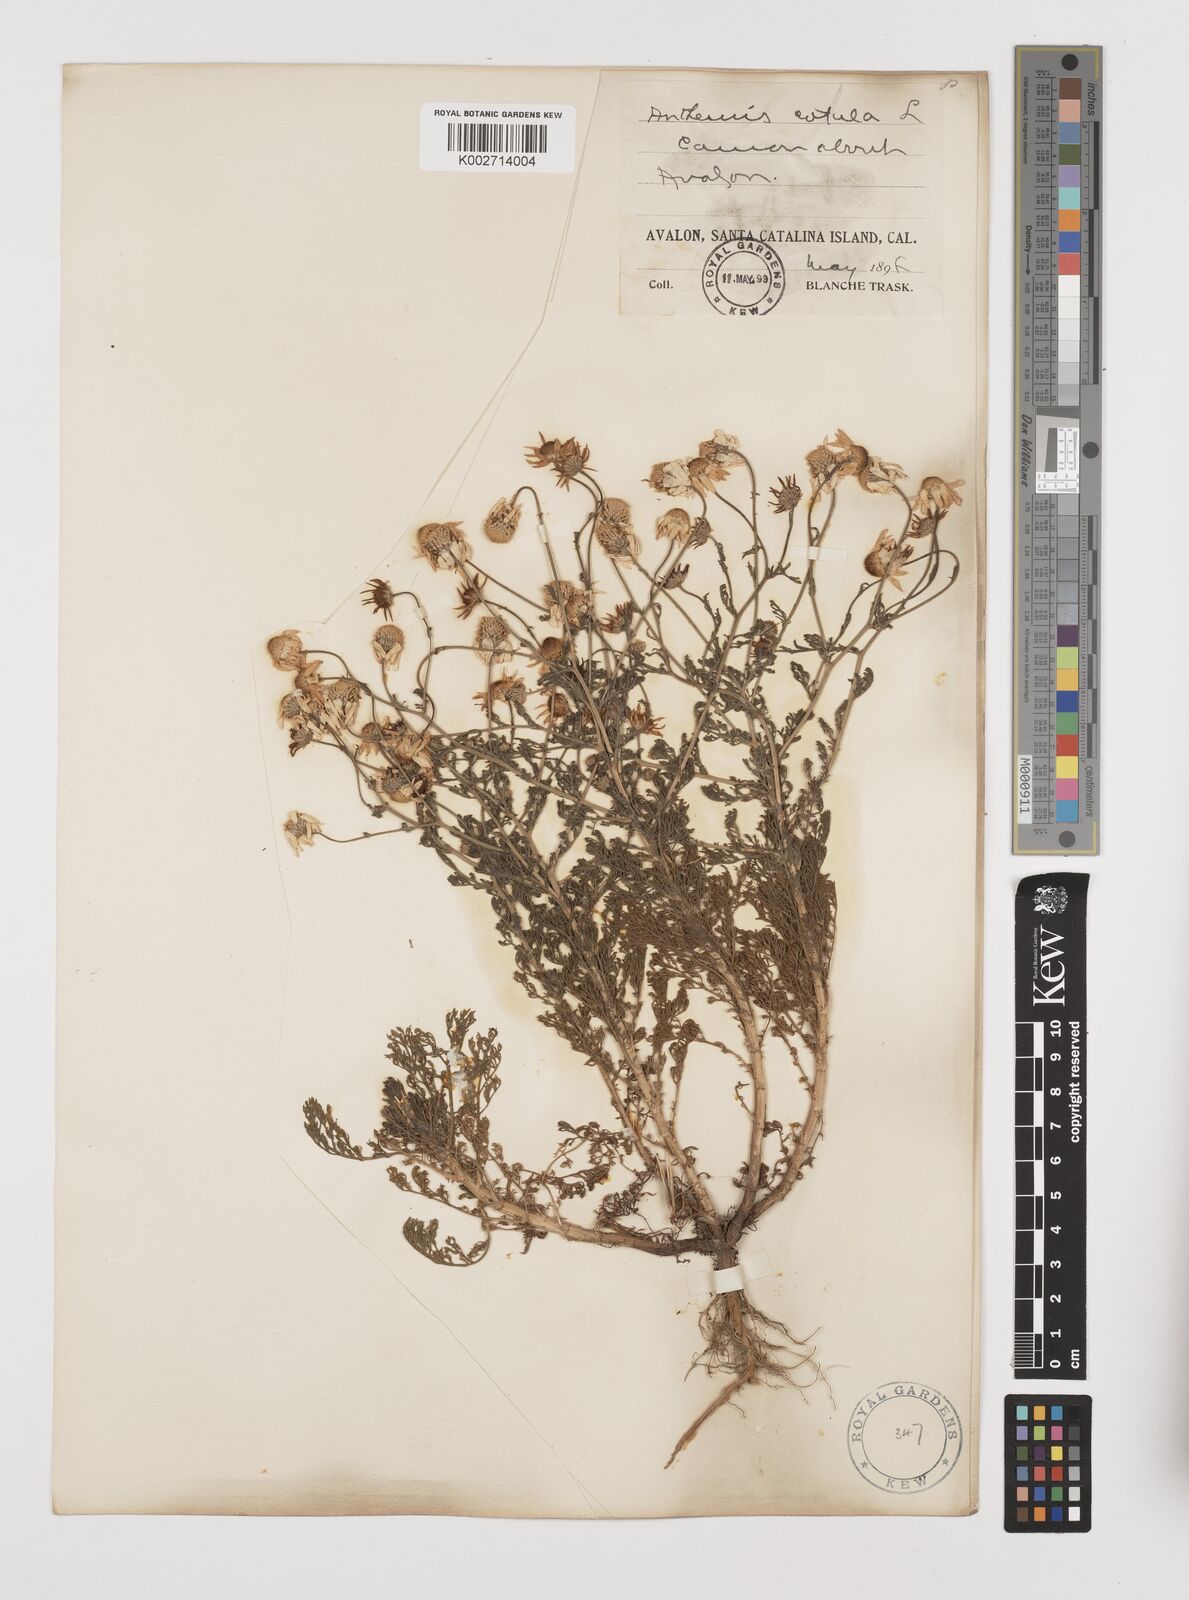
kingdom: Plantae
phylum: Tracheophyta
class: Magnoliopsida
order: Asterales
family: Asteraceae
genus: Anthemis
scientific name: Anthemis cotula
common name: Stinking chamomile
